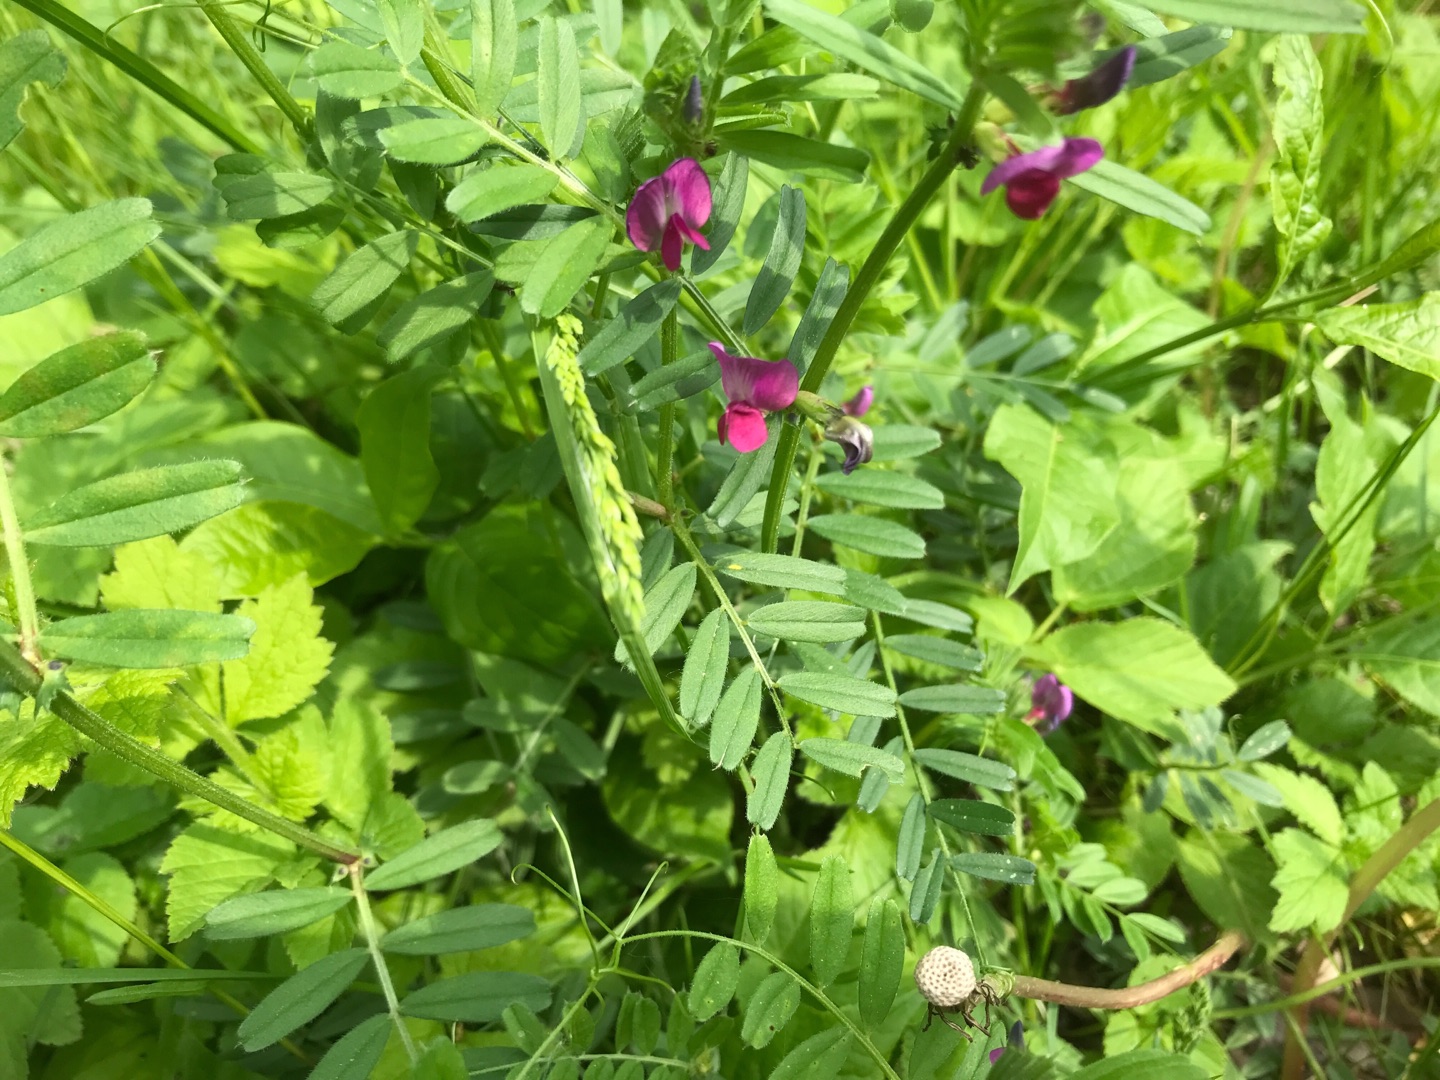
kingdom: Plantae
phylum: Tracheophyta
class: Magnoliopsida
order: Fabales
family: Fabaceae
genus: Vicia
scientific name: Vicia sativa
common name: Smalbladet vikke
